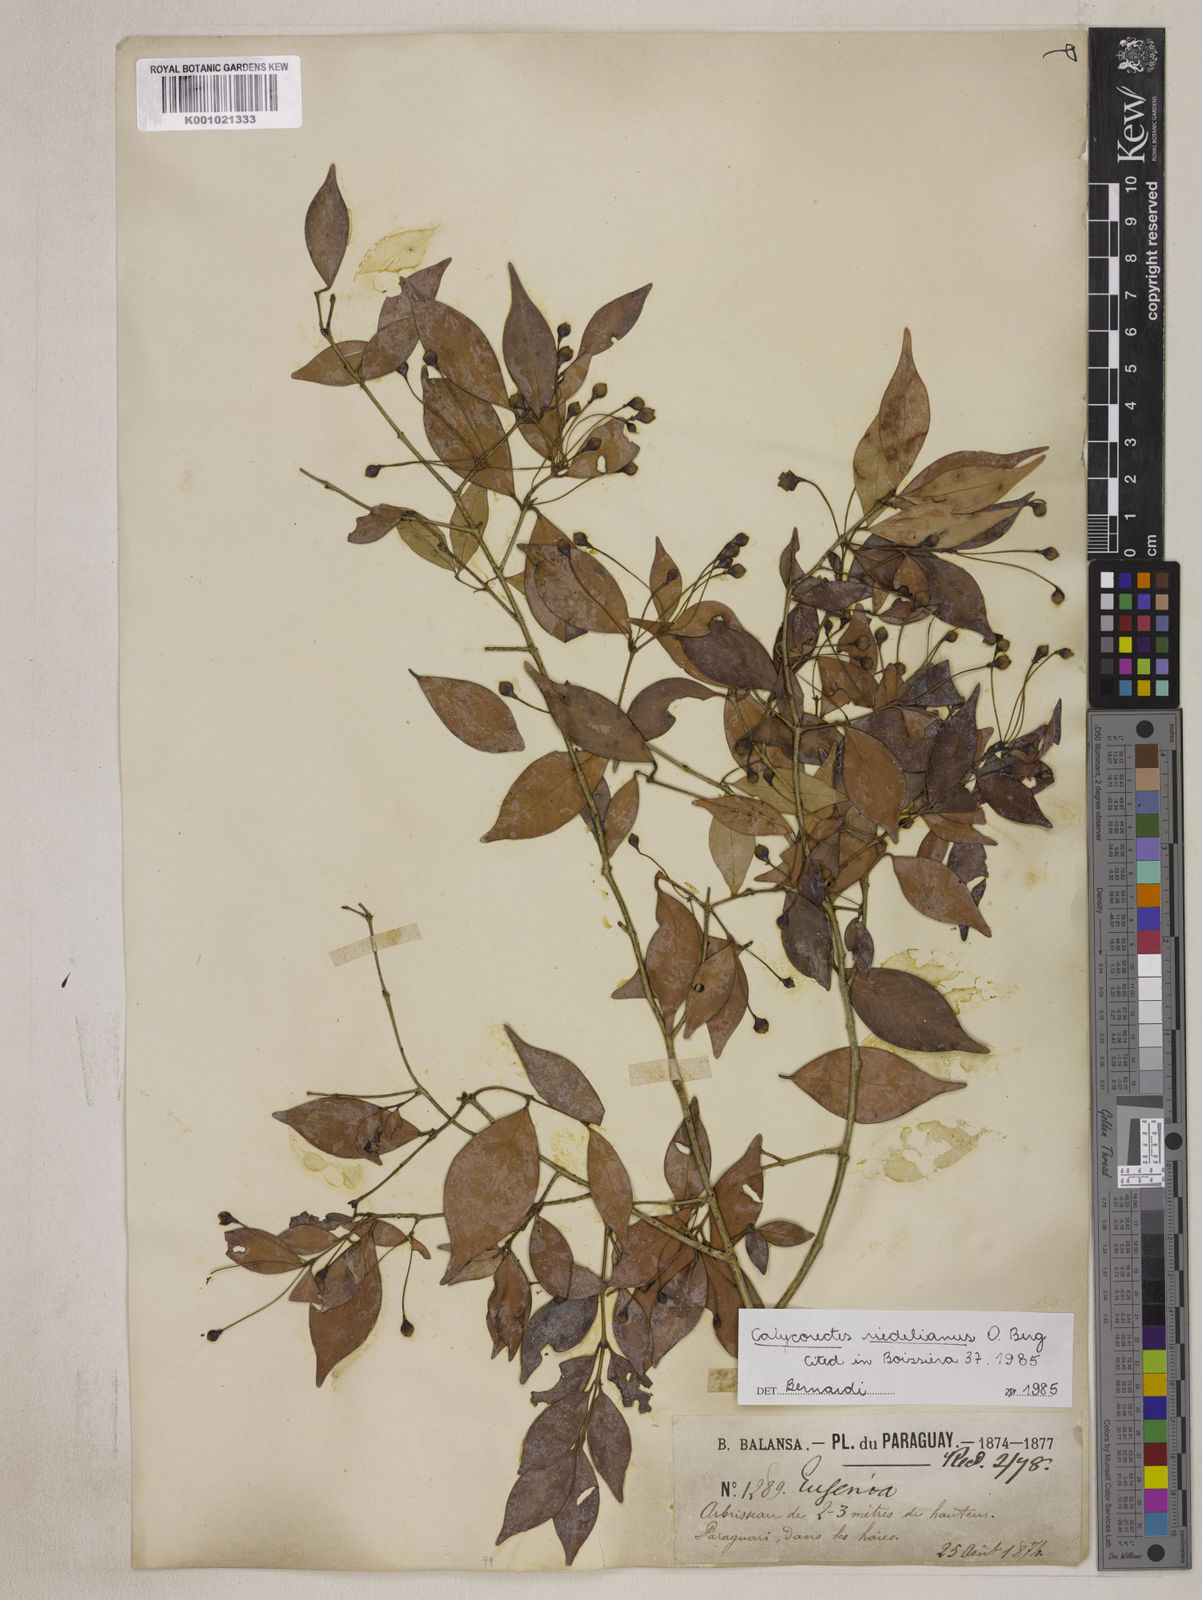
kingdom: Plantae
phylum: Tracheophyta
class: Magnoliopsida
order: Myrtales
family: Myrtaceae
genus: Eugenia
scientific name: Eugenia subterminalis
